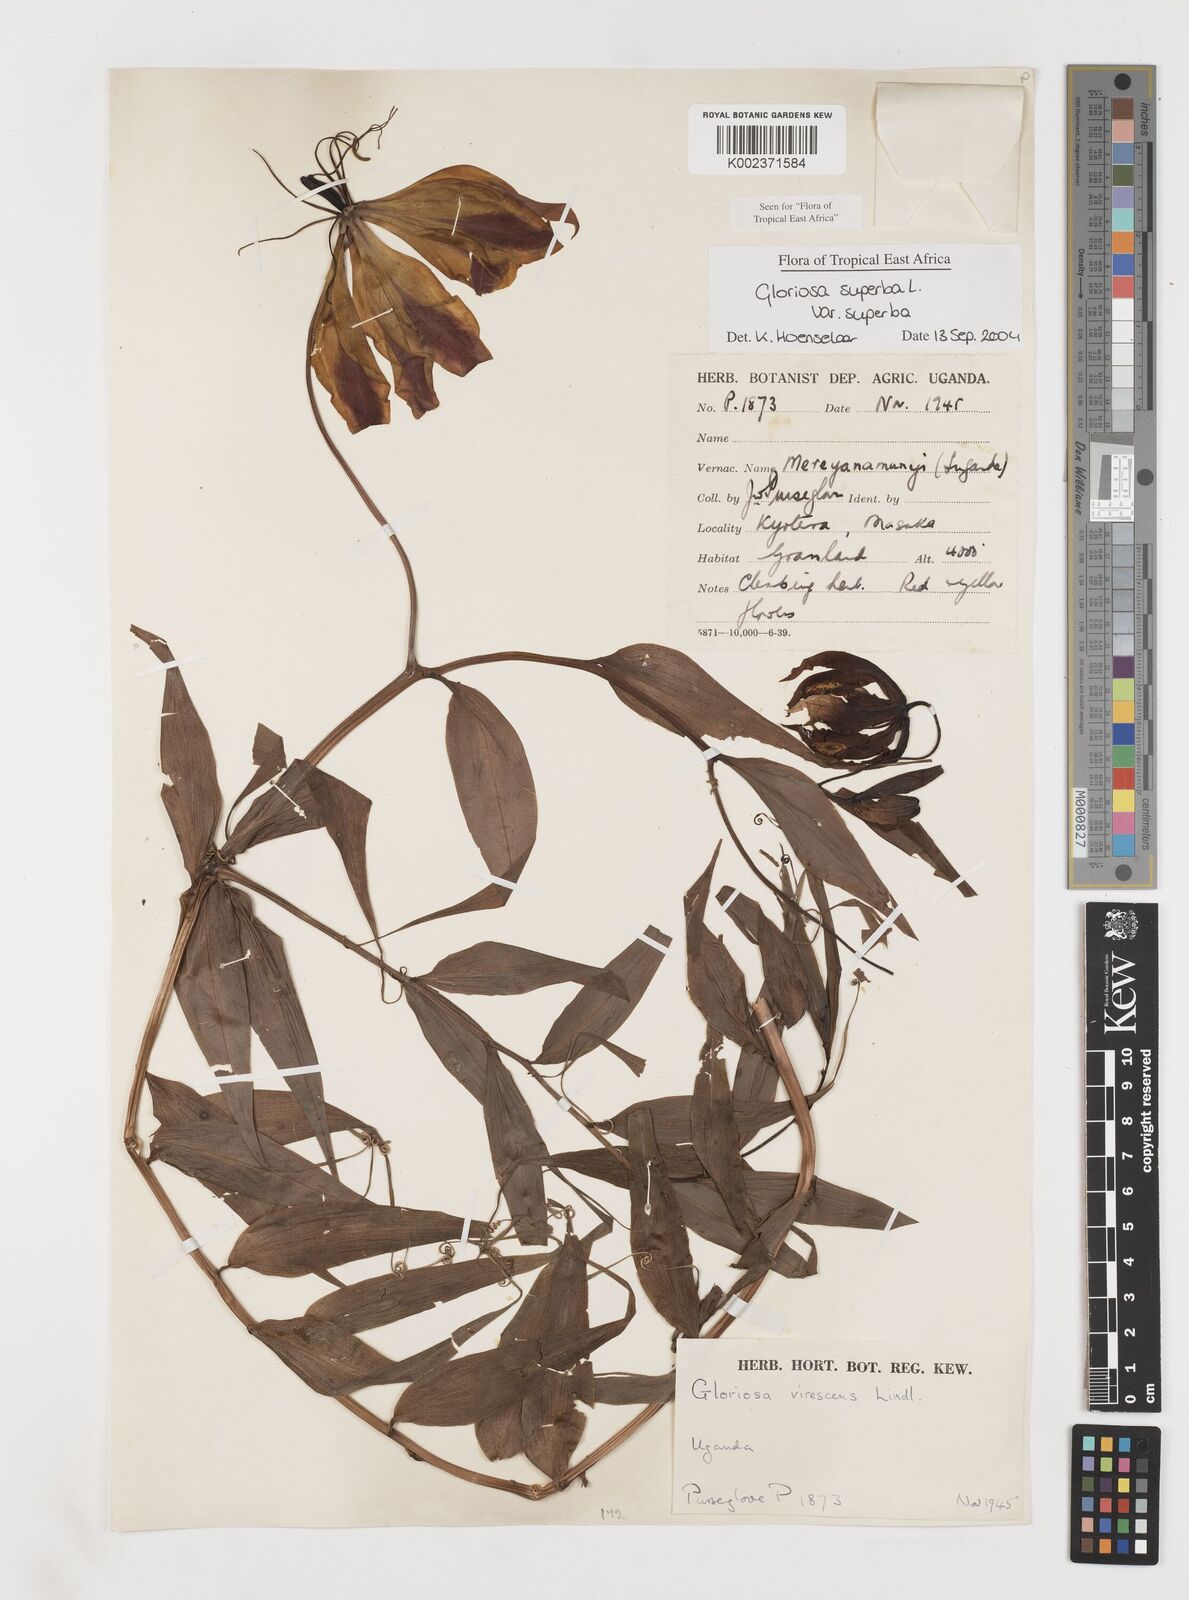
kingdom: Plantae
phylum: Tracheophyta
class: Liliopsida
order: Liliales
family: Colchicaceae
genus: Gloriosa
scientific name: Gloriosa simplex
